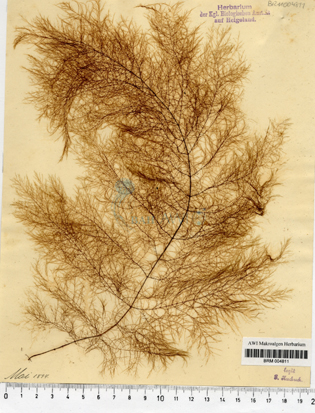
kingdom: Chromista
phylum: Ochrophyta
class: Phaeophyceae
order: Desmarestiales
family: Desmarestiaceae
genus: Desmarestia
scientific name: Desmarestia viridis
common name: Stringy acid kelp
